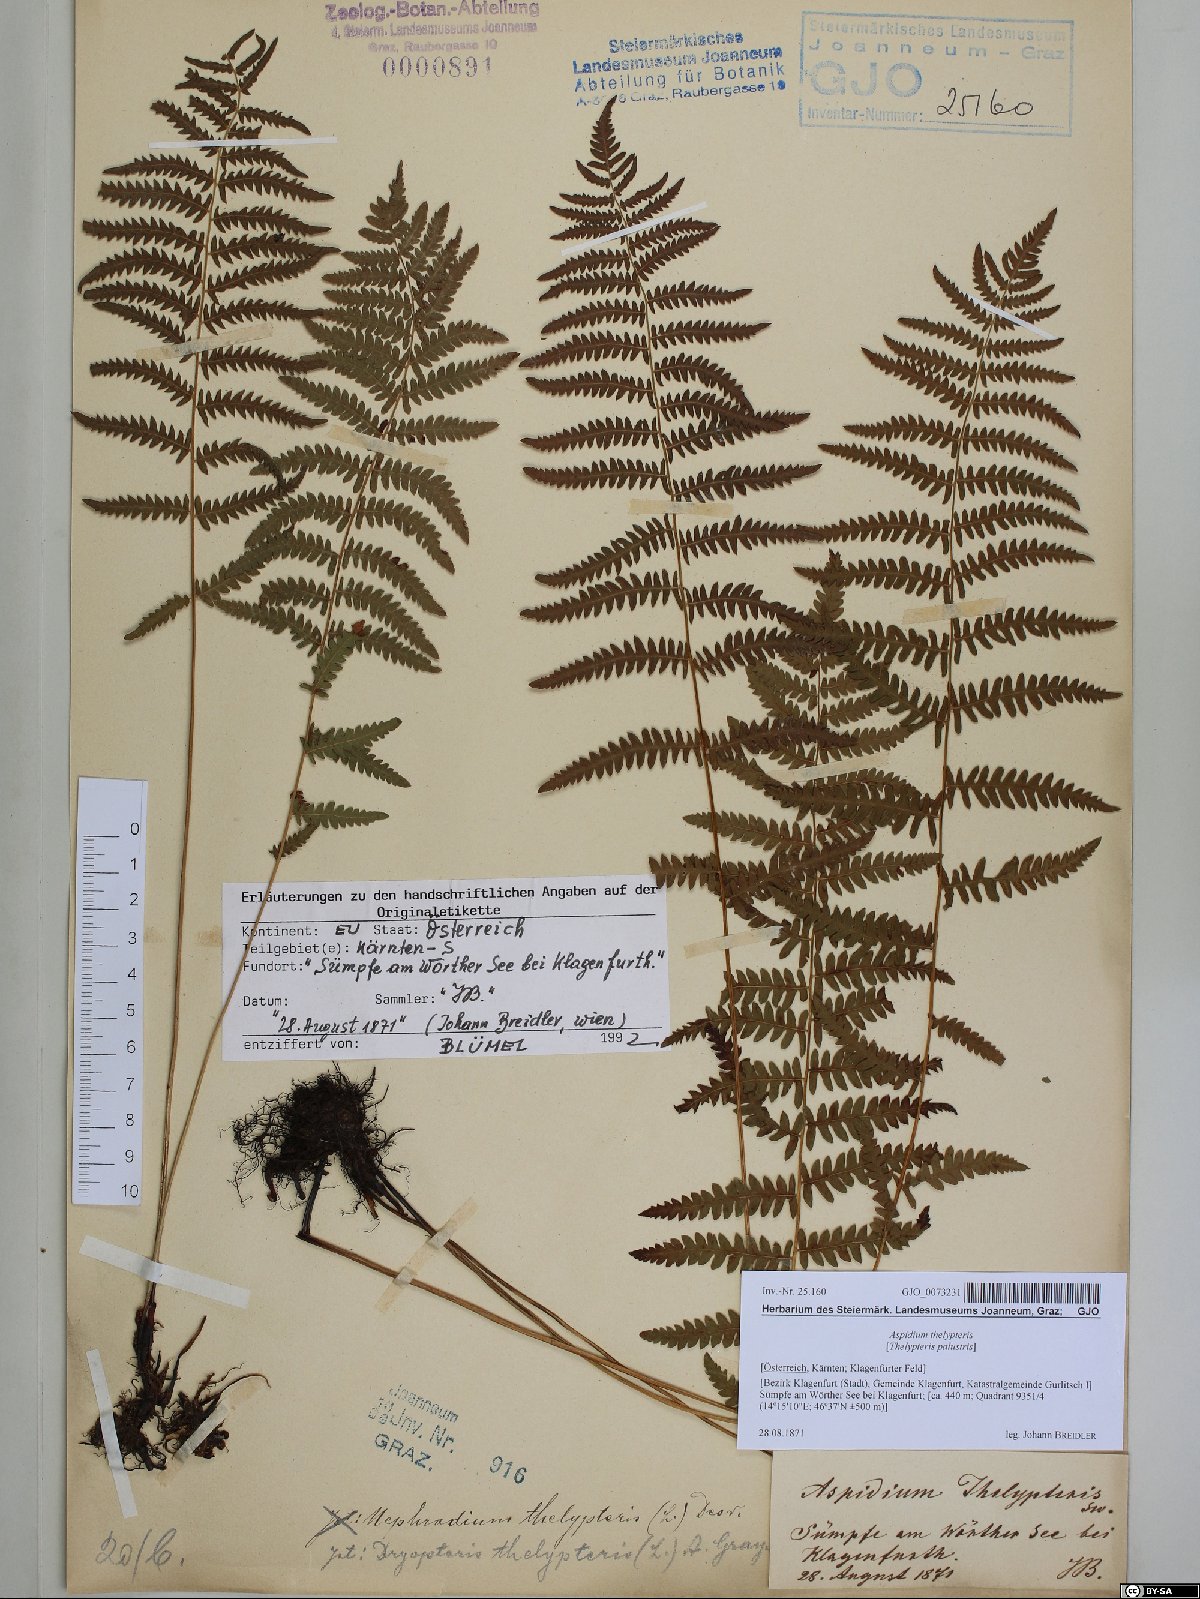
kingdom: Plantae
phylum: Tracheophyta
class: Polypodiopsida
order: Polypodiales
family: Thelypteridaceae
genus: Thelypteris
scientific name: Thelypteris palustris
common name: Marsh fern
